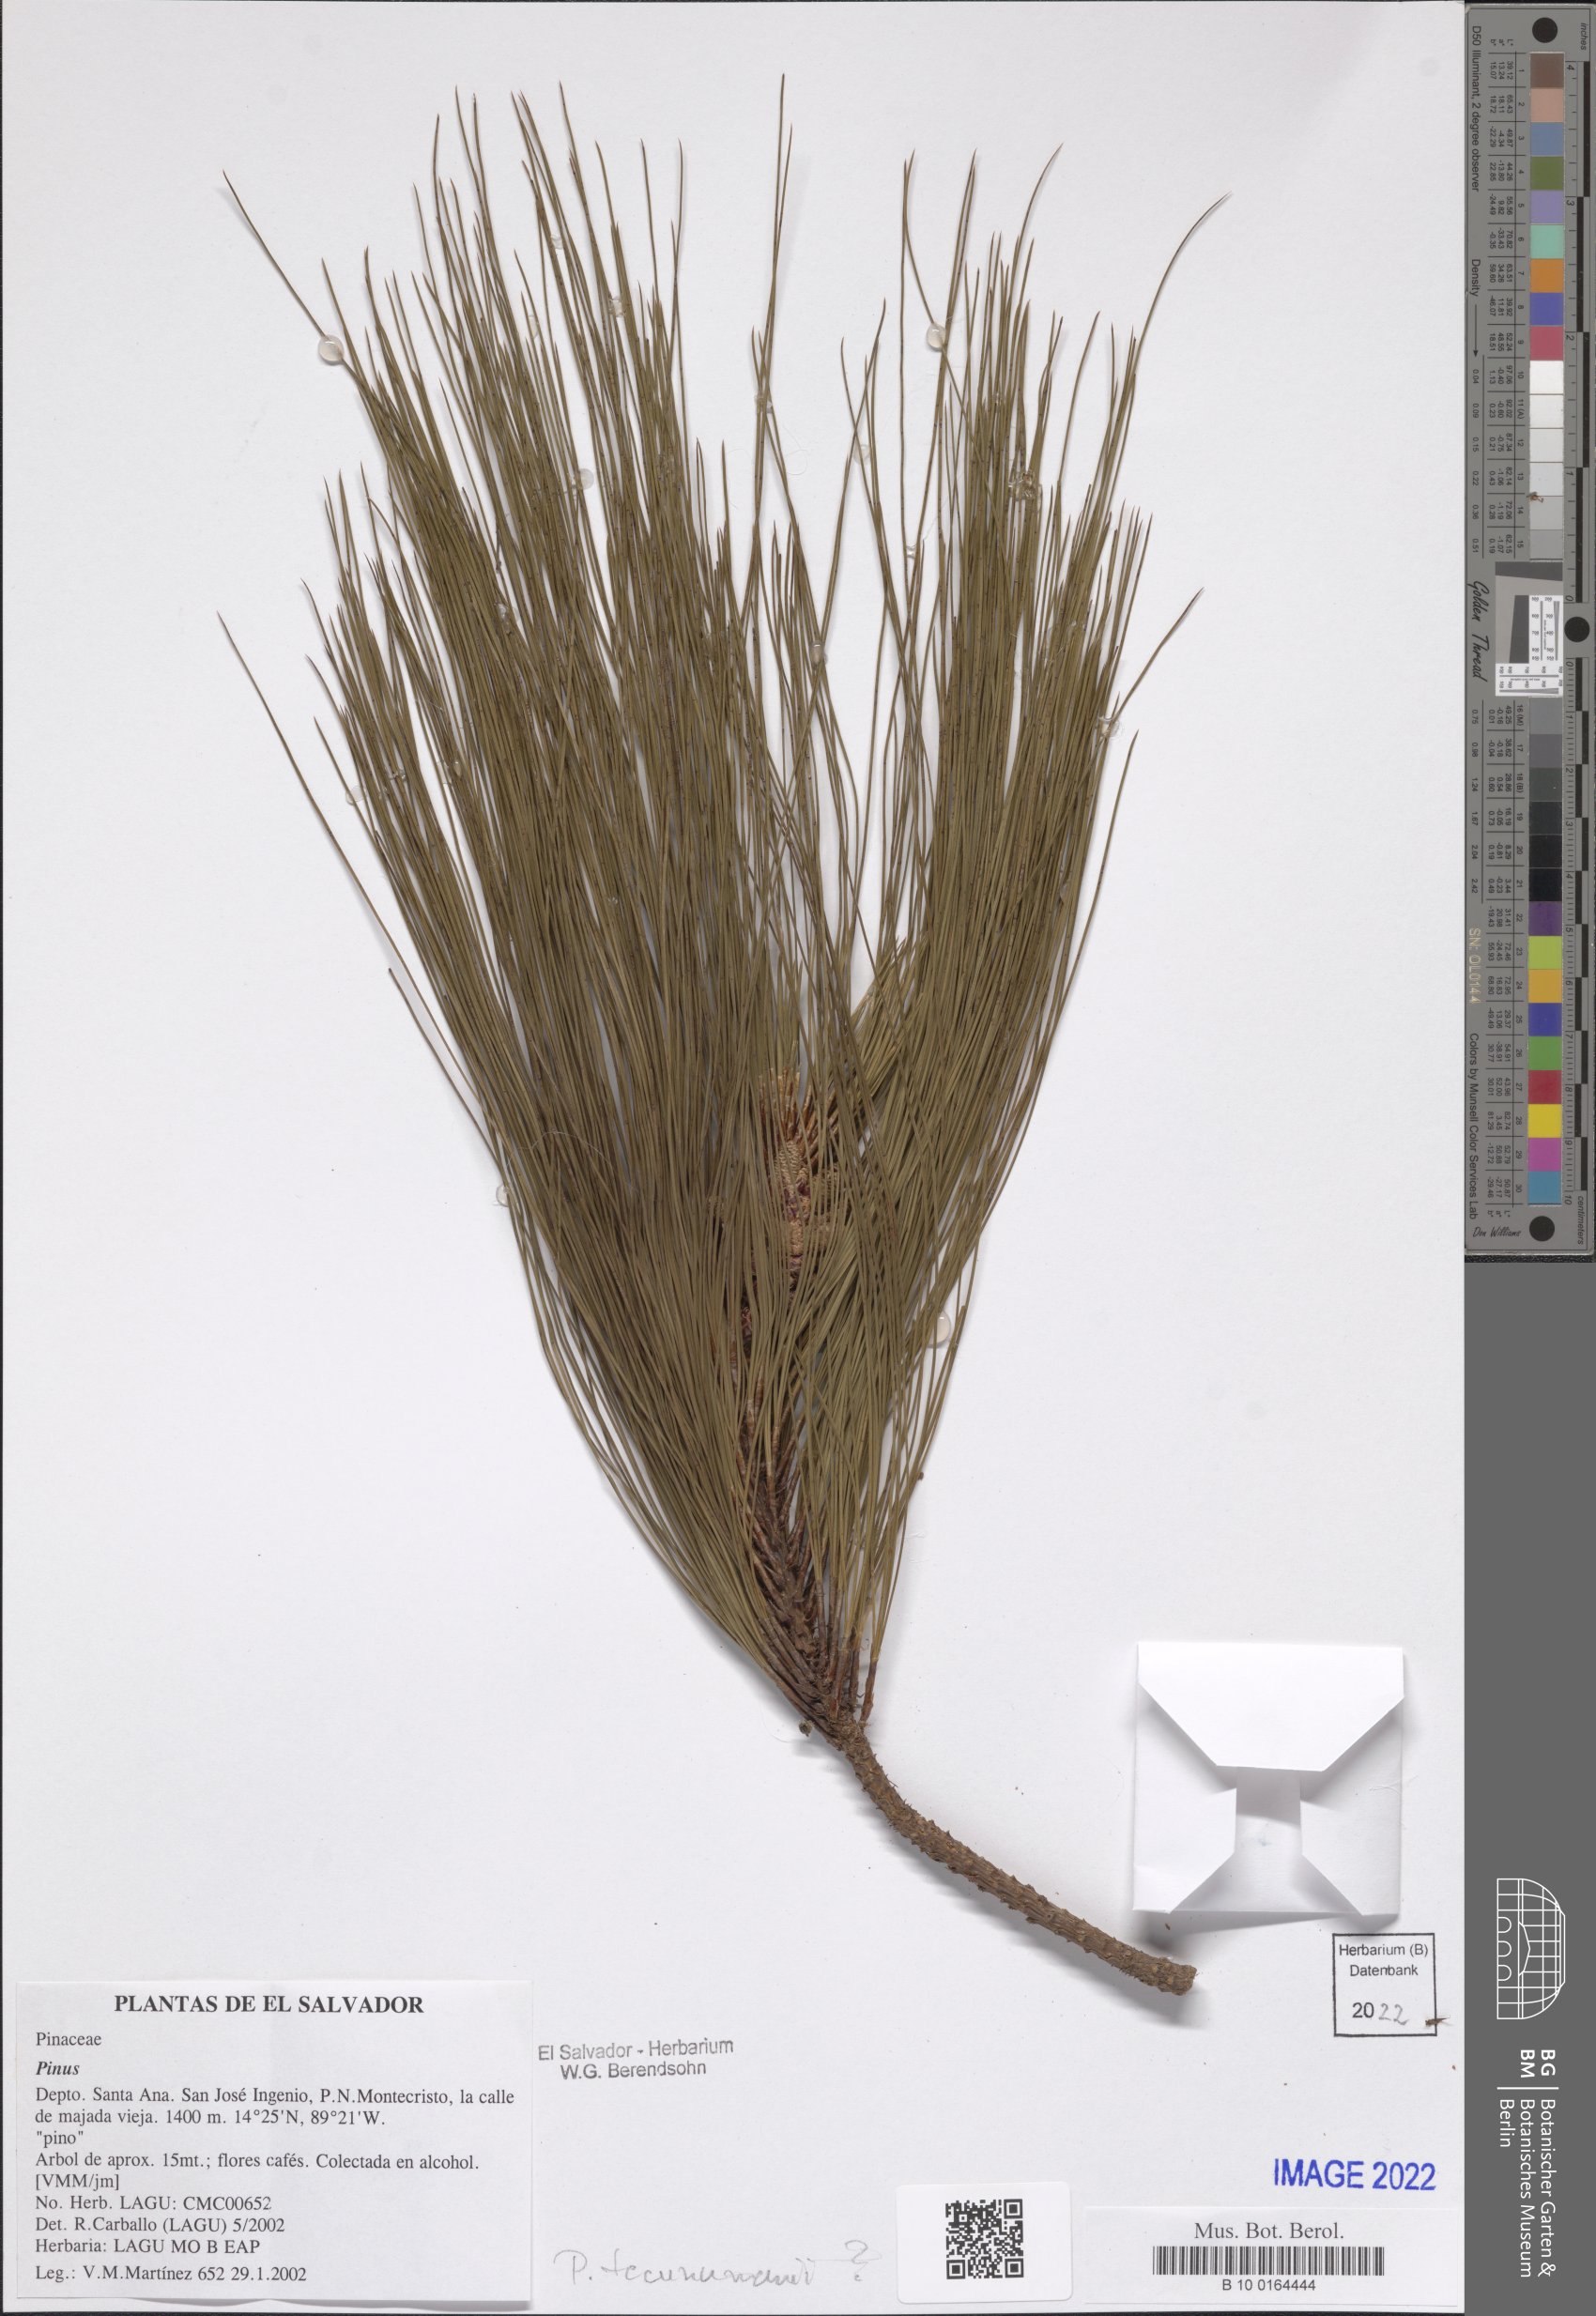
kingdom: Plantae
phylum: Tracheophyta
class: Pinopsida
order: Pinales
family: Pinaceae
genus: Pinus
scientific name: Pinus
